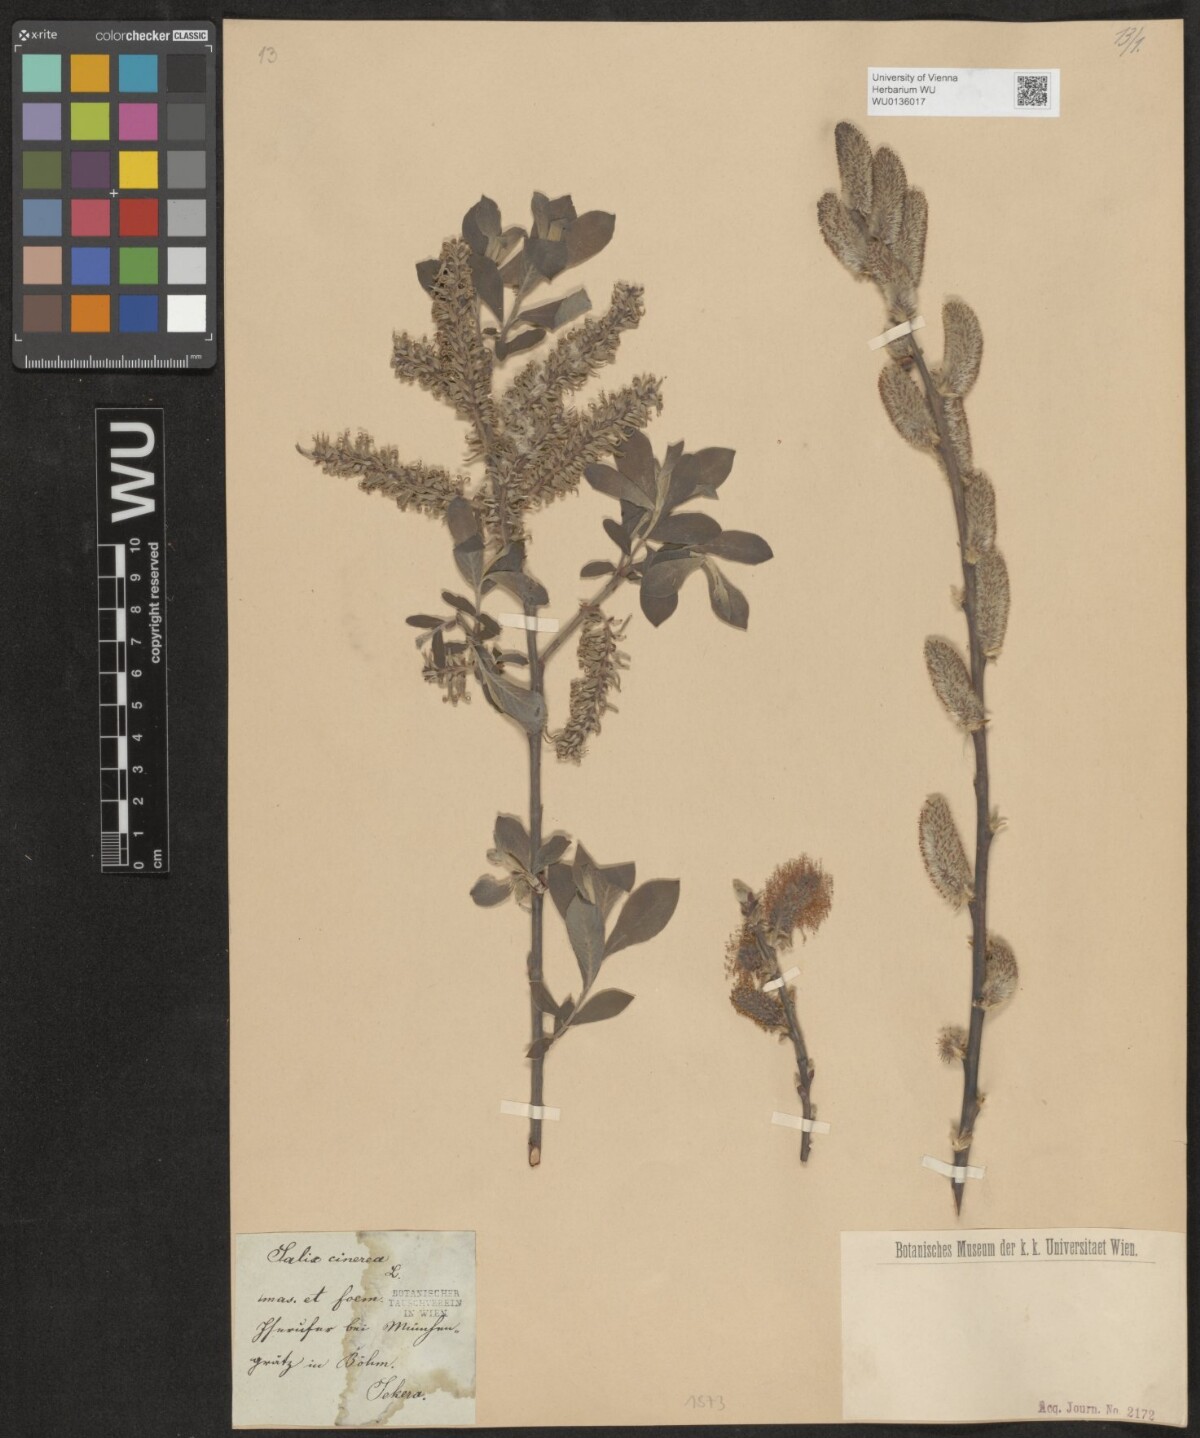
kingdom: Plantae
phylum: Tracheophyta
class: Magnoliopsida
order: Malpighiales
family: Salicaceae
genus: Salix
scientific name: Salix cinerea
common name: Common sallow
